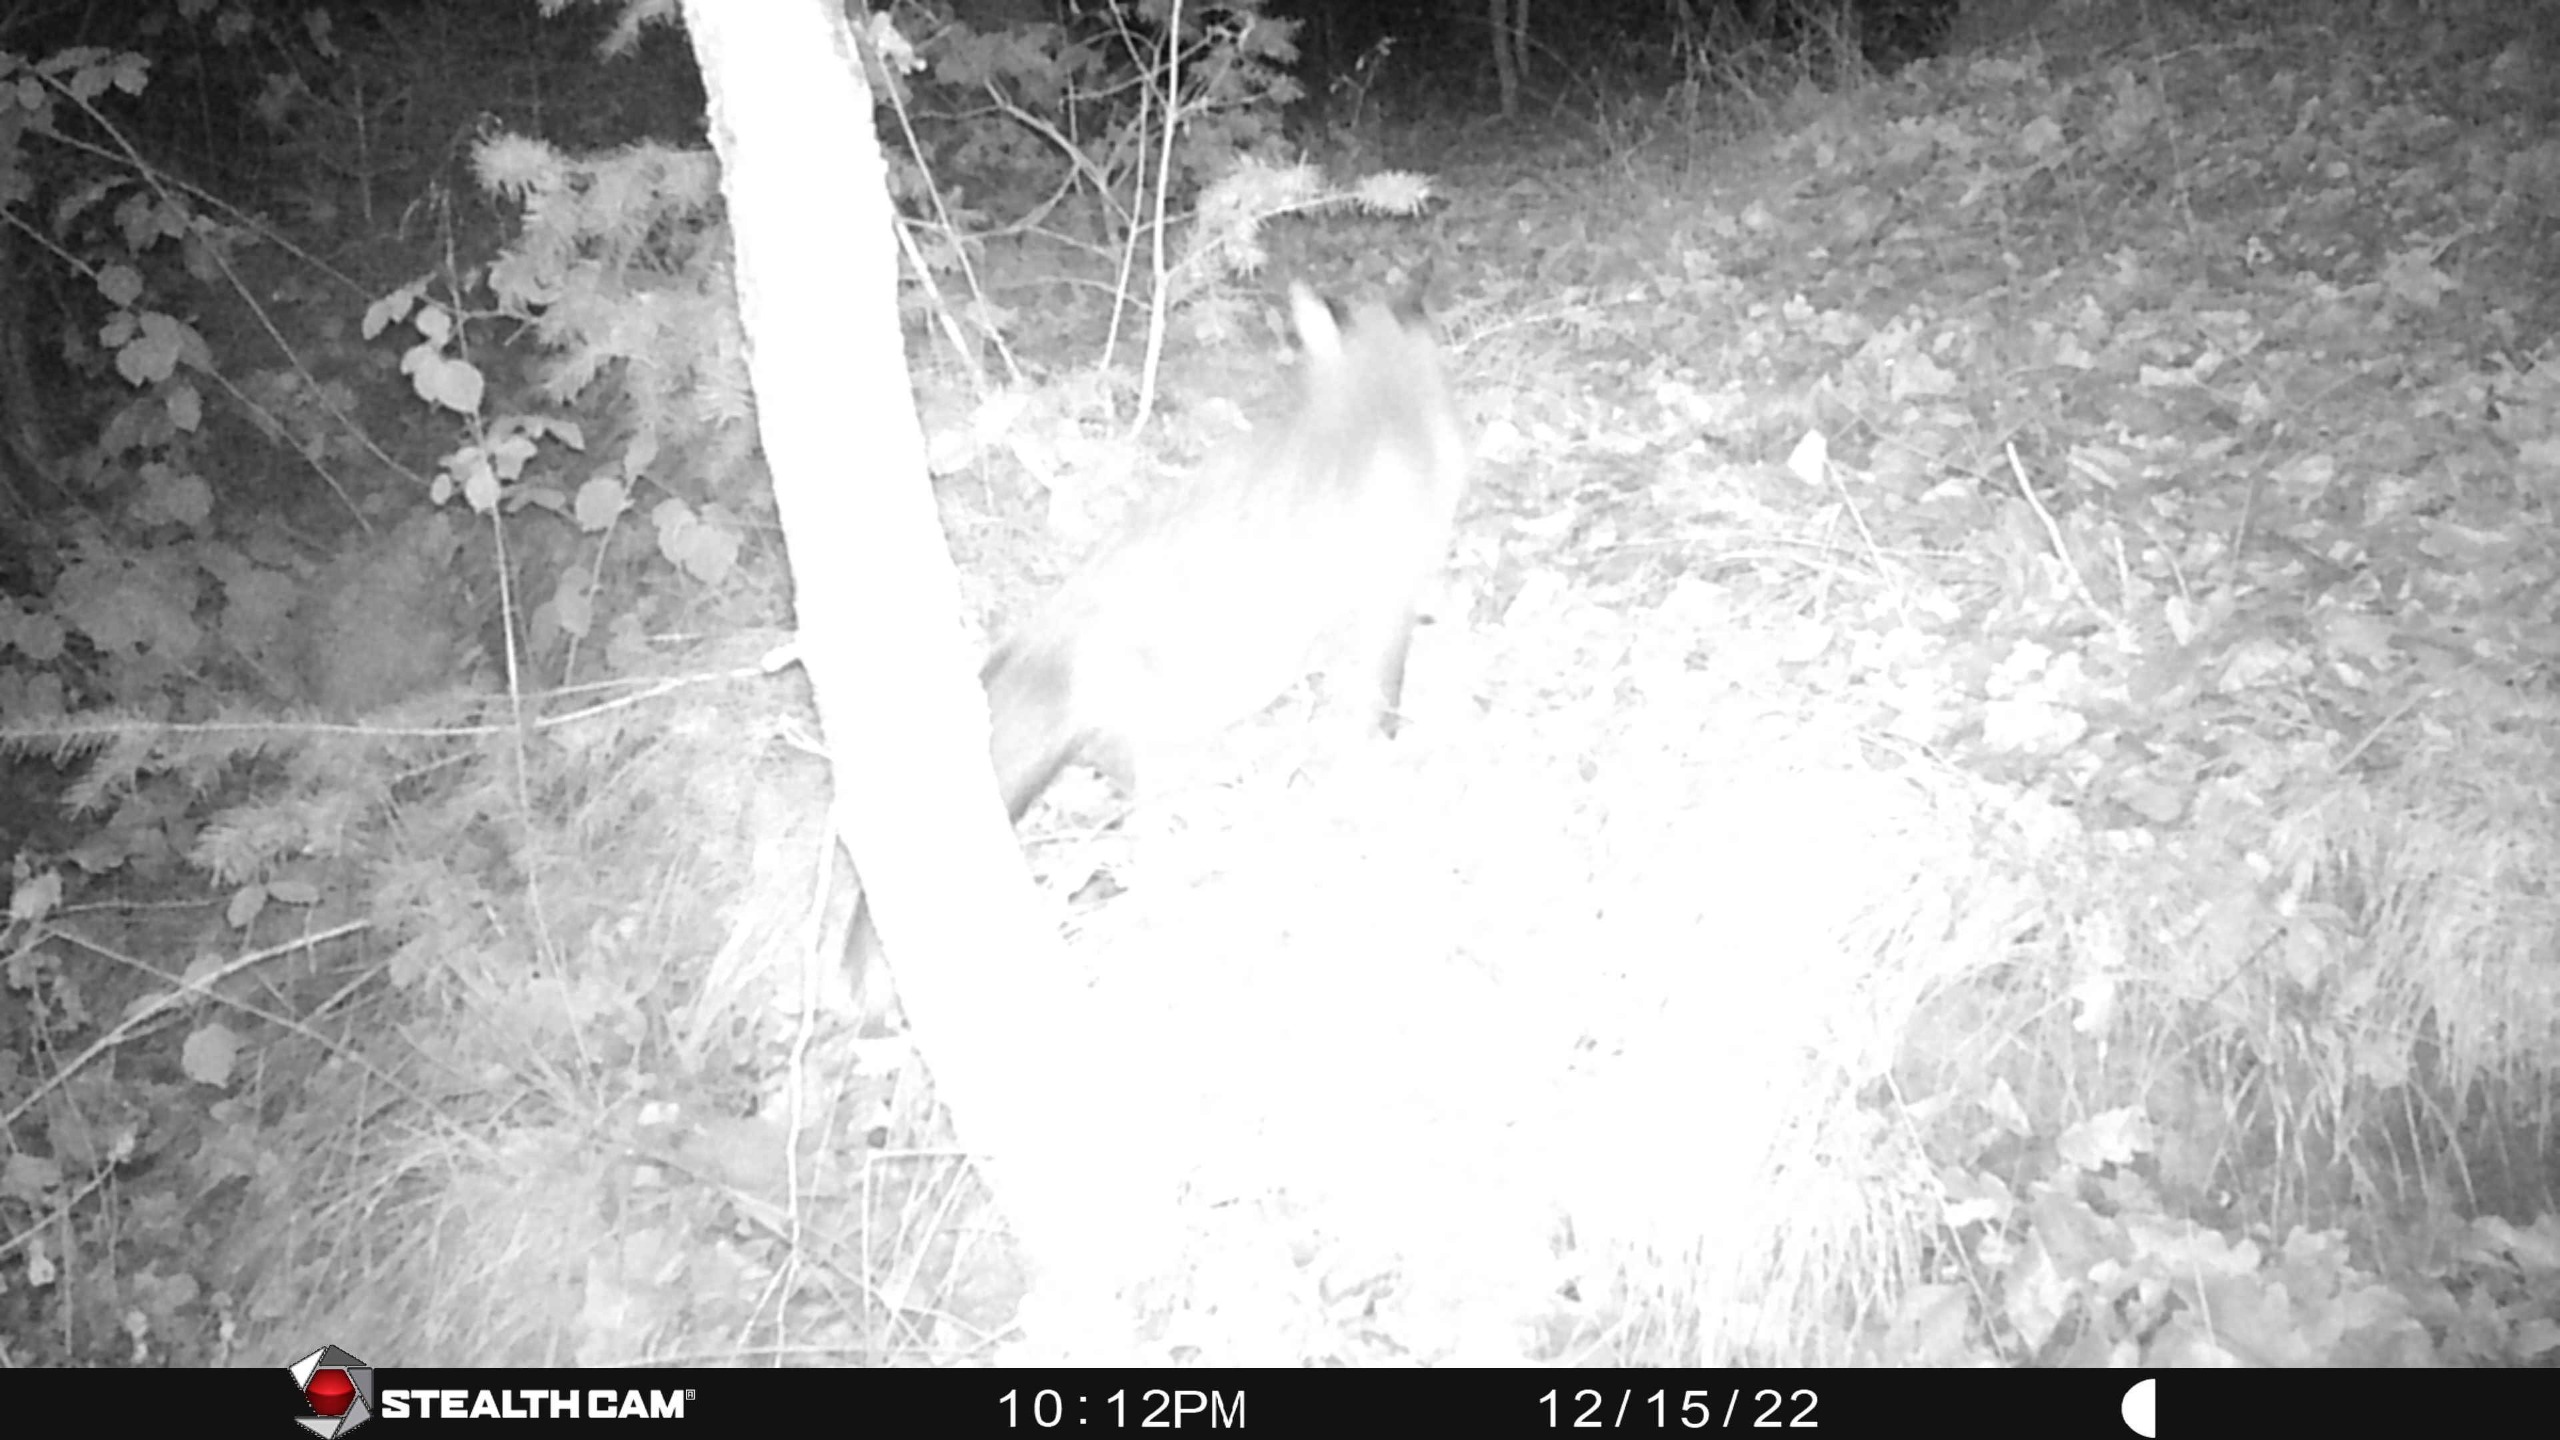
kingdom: Animalia
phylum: Chordata
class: Mammalia
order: Carnivora
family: Canidae
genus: Vulpes
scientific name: Vulpes vulpes
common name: Ræv
